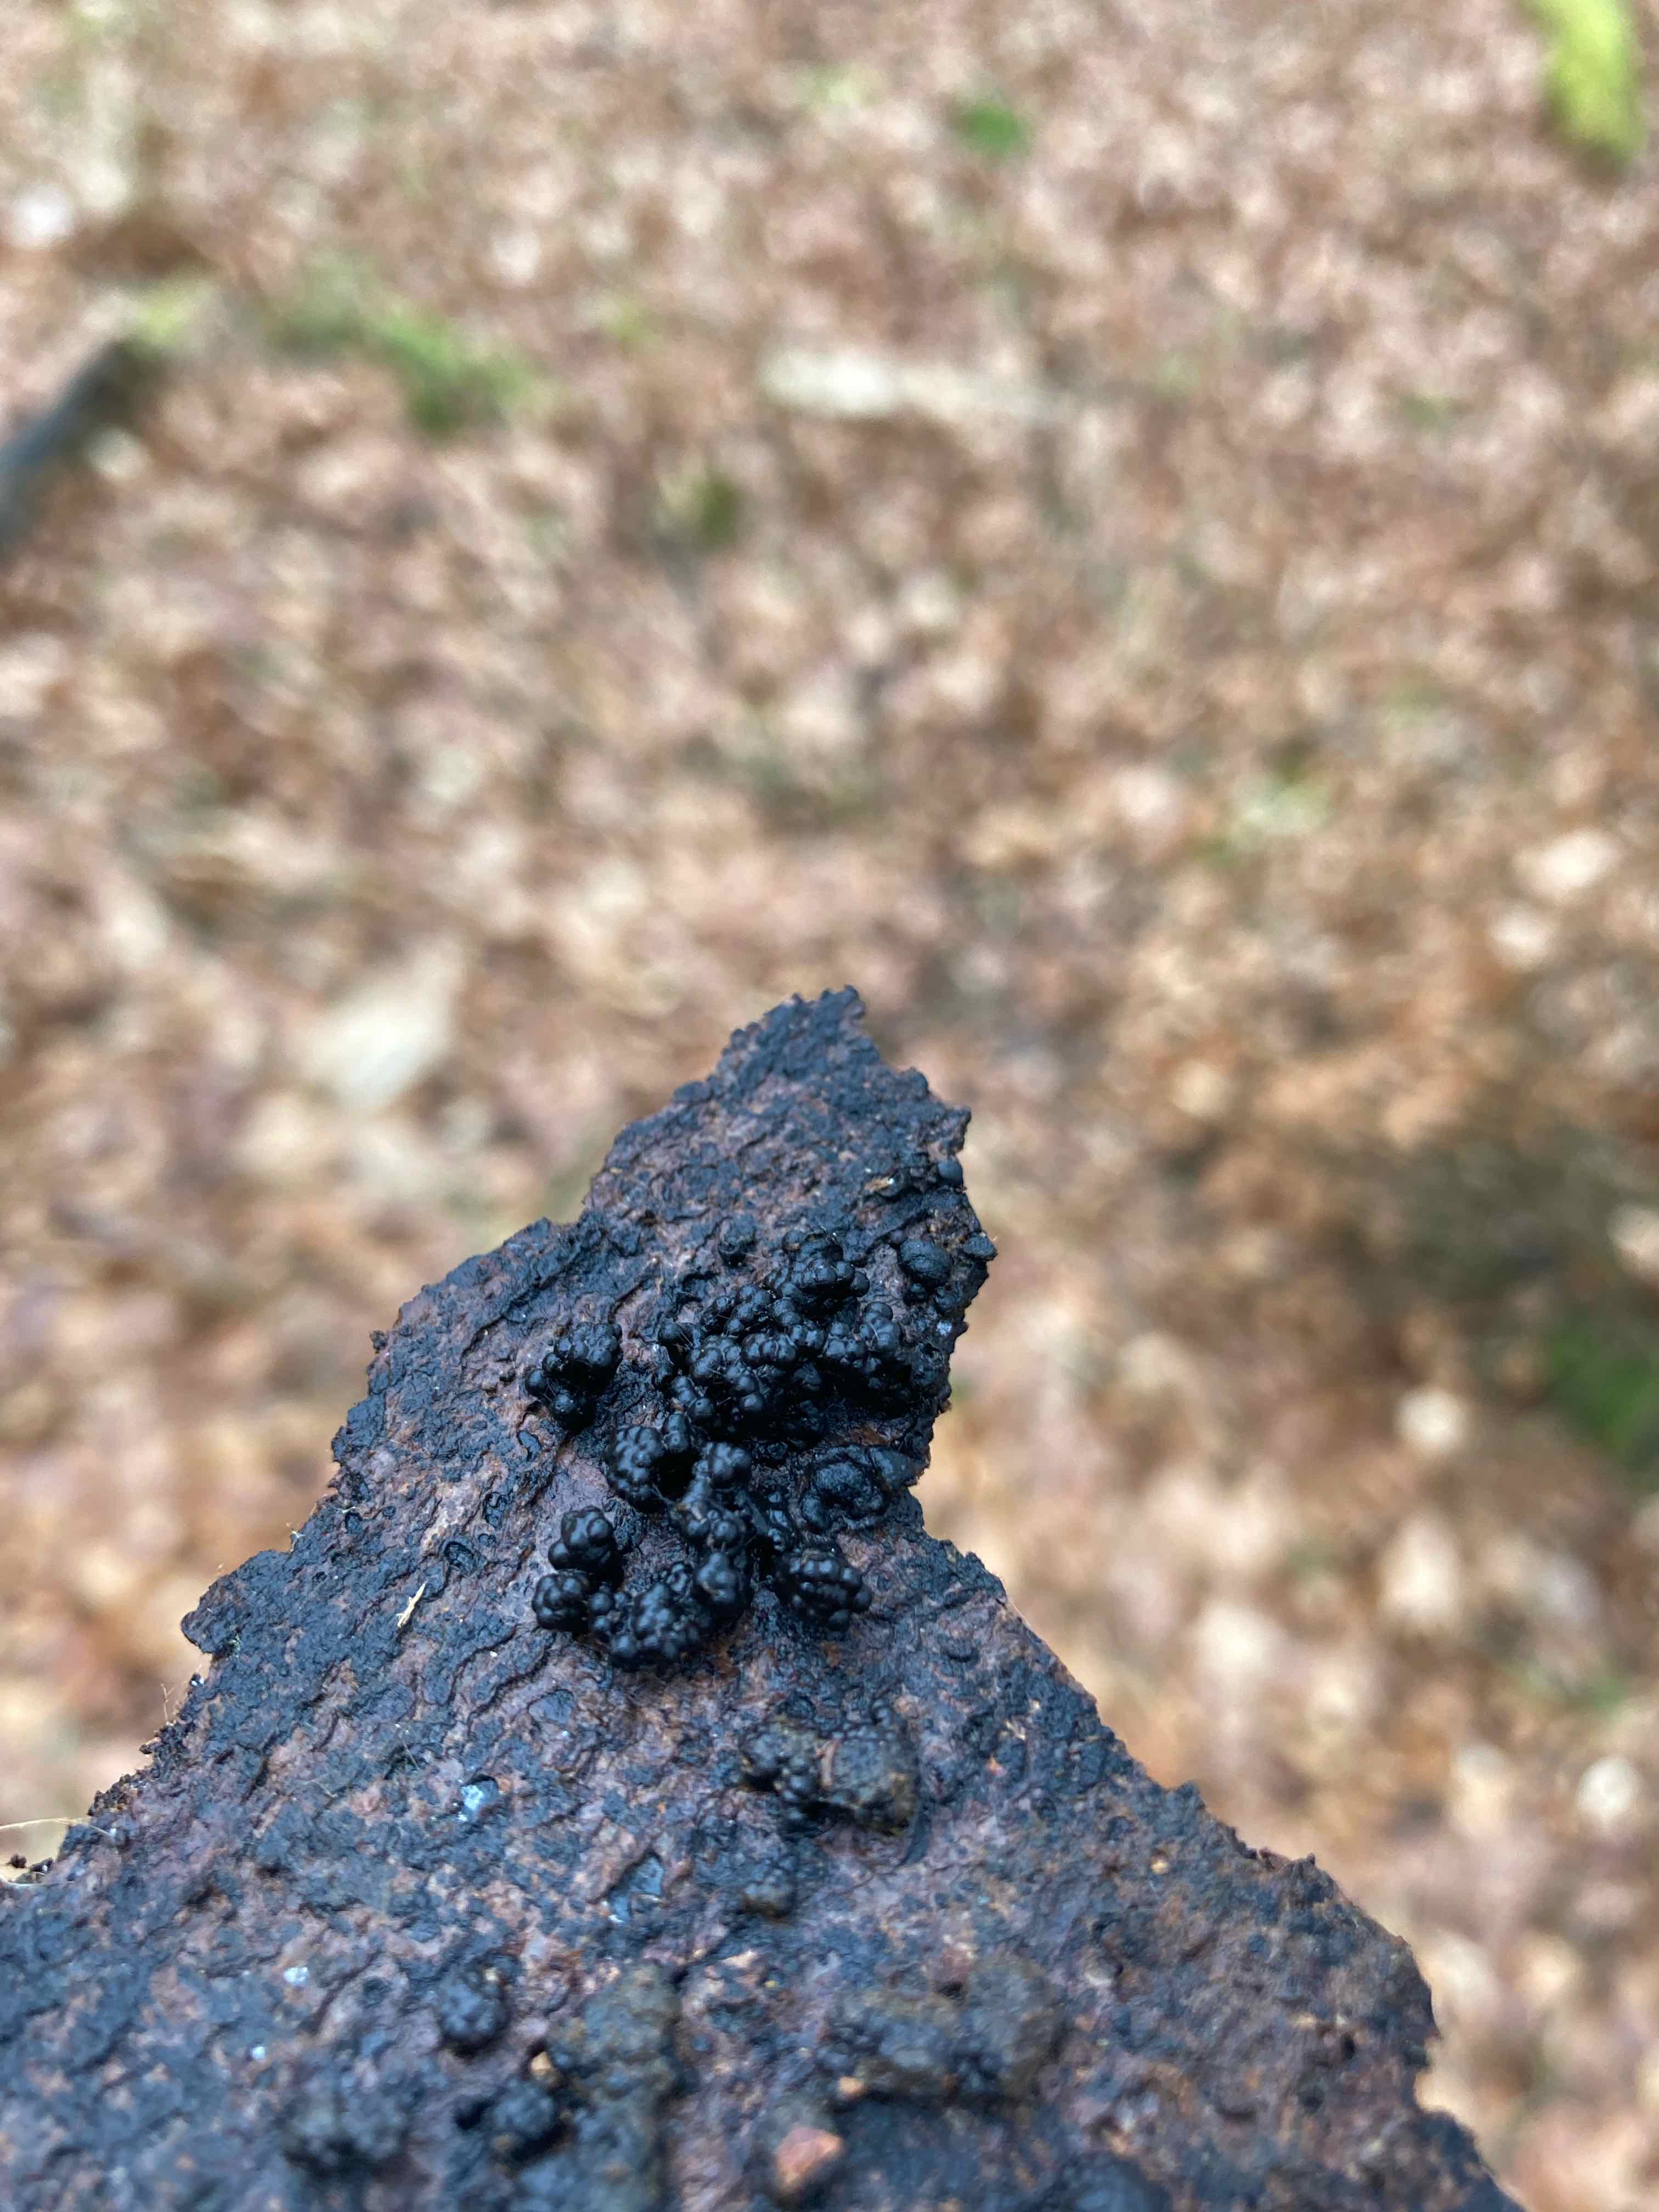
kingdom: Fungi
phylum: Ascomycota
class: Sordariomycetes
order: Xylariales
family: Hypoxylaceae
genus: Jackrogersella
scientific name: Jackrogersella cohaerens
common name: sammenflydende kulbær
